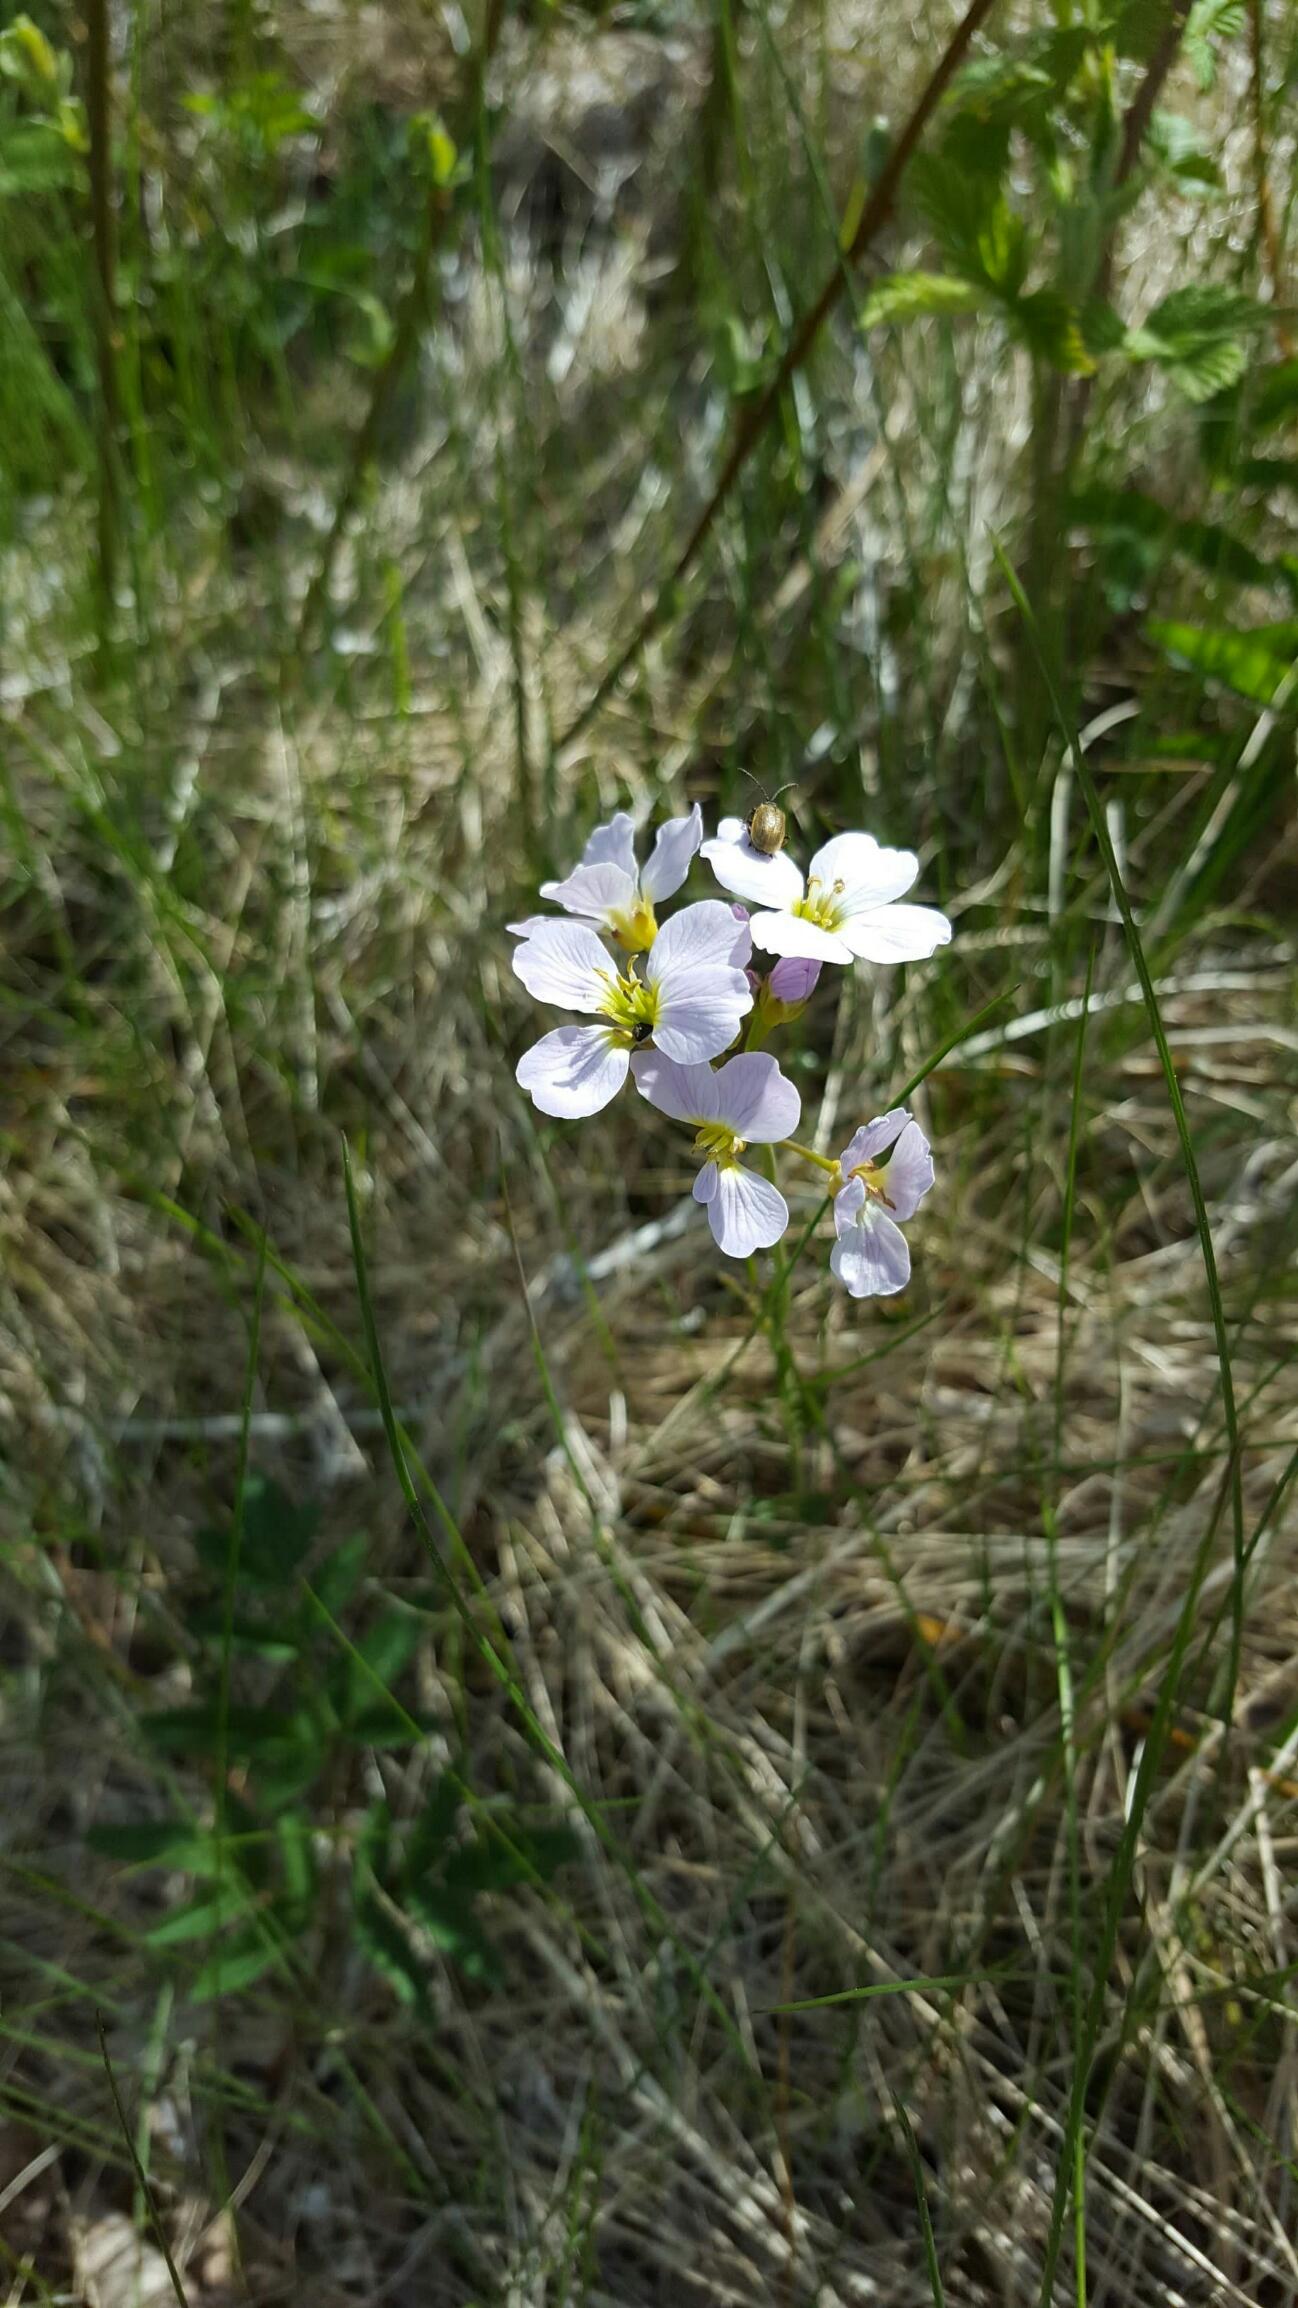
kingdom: Plantae
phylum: Tracheophyta
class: Magnoliopsida
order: Brassicales
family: Brassicaceae
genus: Cardamine
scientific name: Cardamine pratensis
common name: Engkarse
